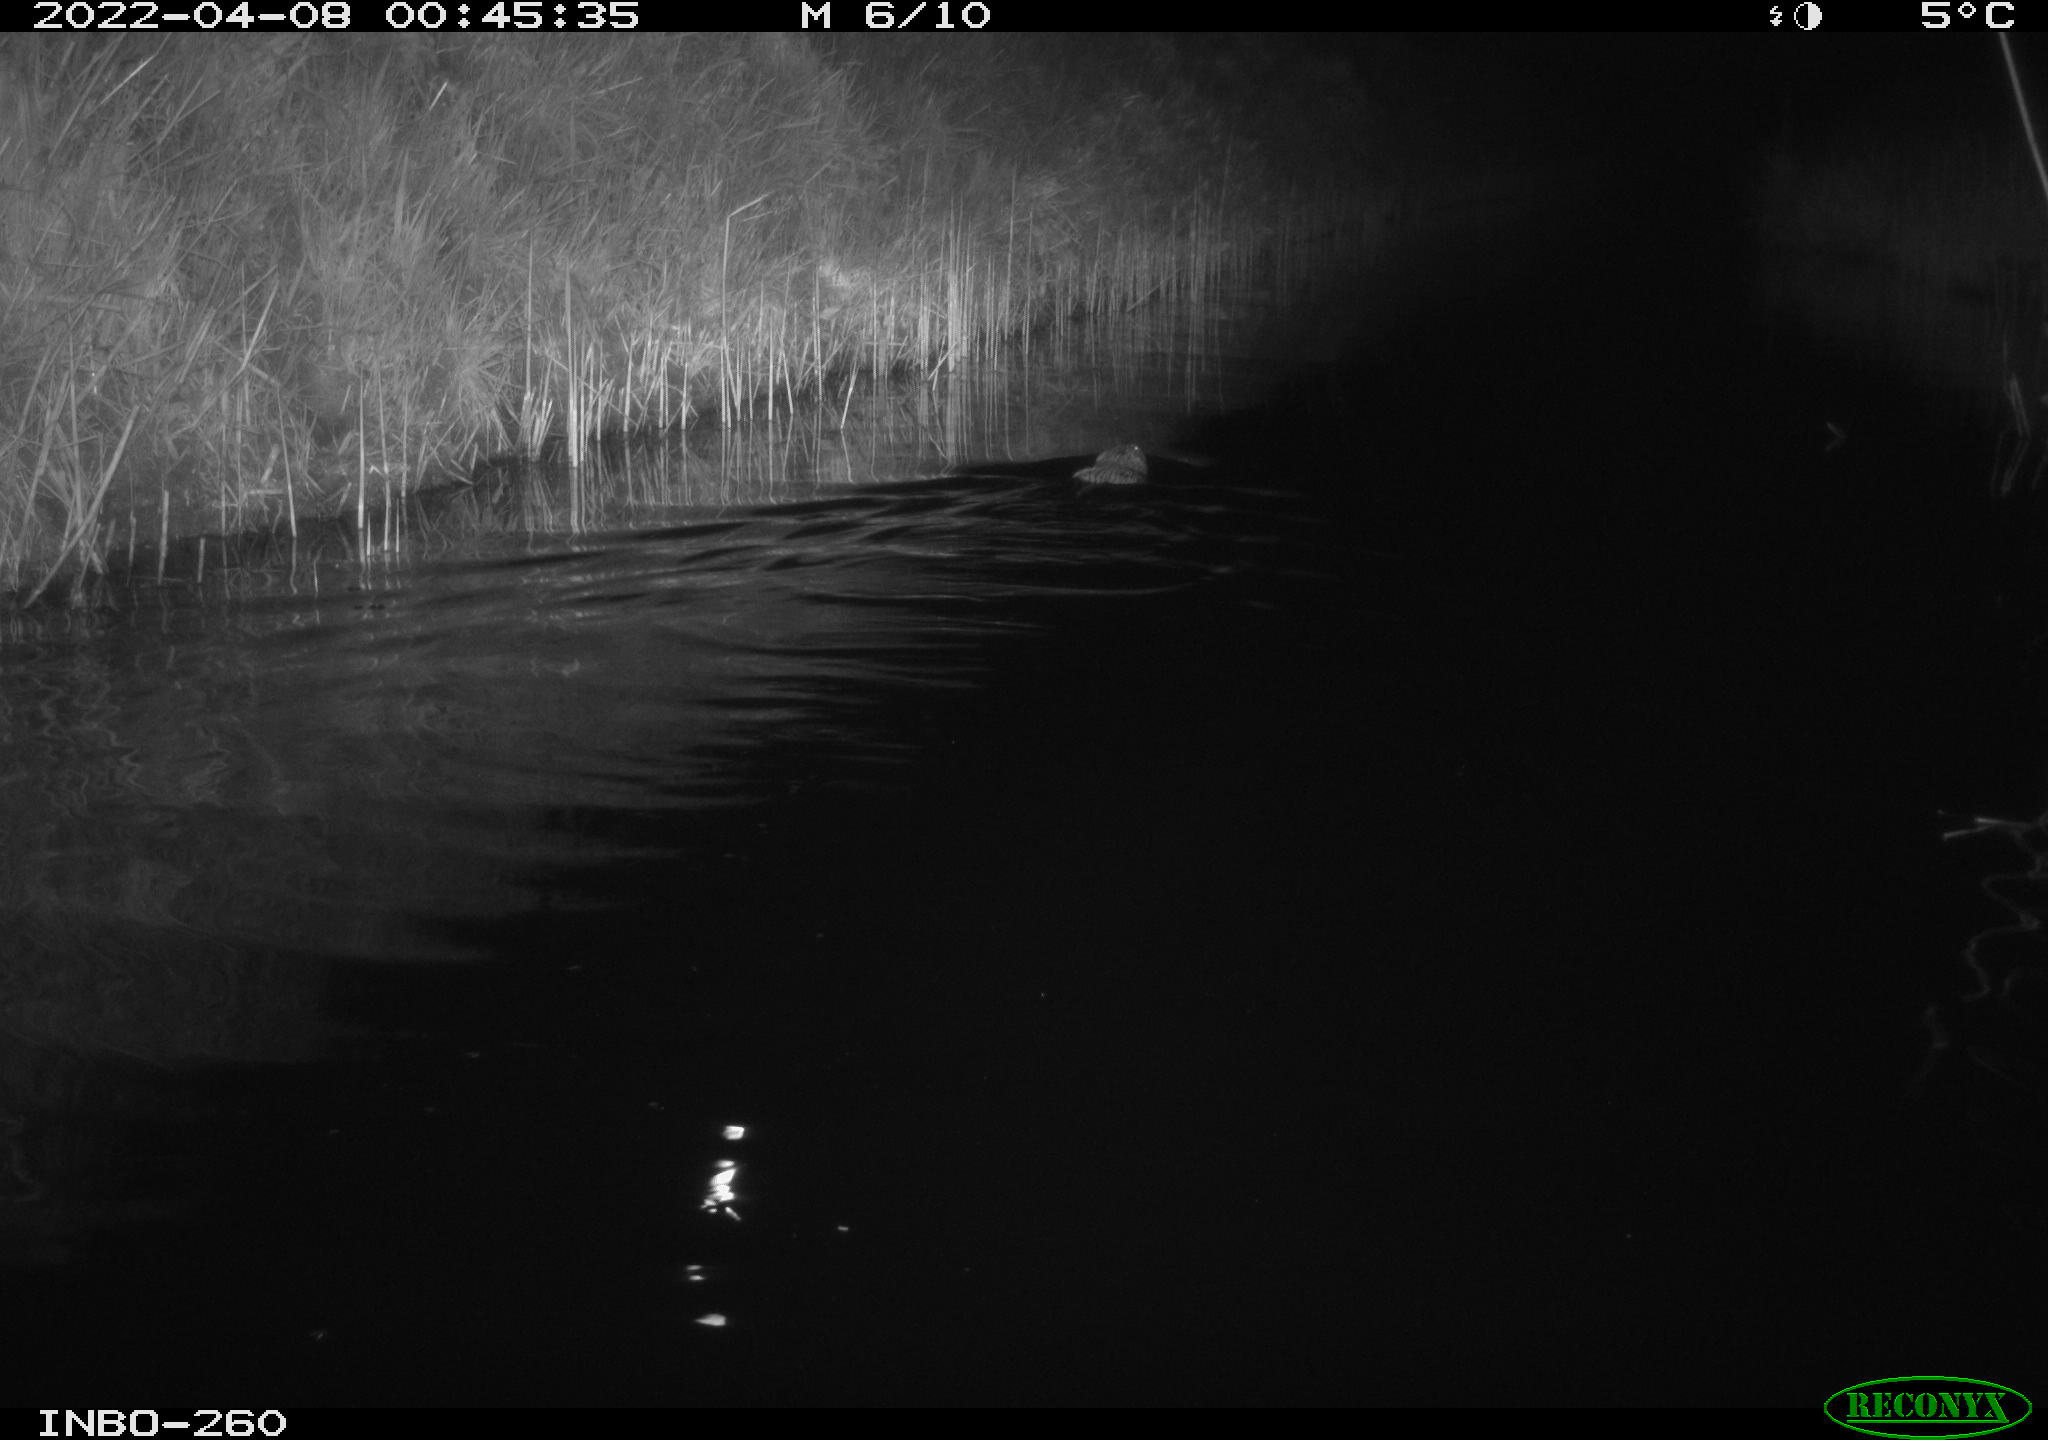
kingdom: Animalia
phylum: Chordata
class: Mammalia
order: Rodentia
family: Cricetidae
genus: Ondatra
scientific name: Ondatra zibethicus
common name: Muskrat
